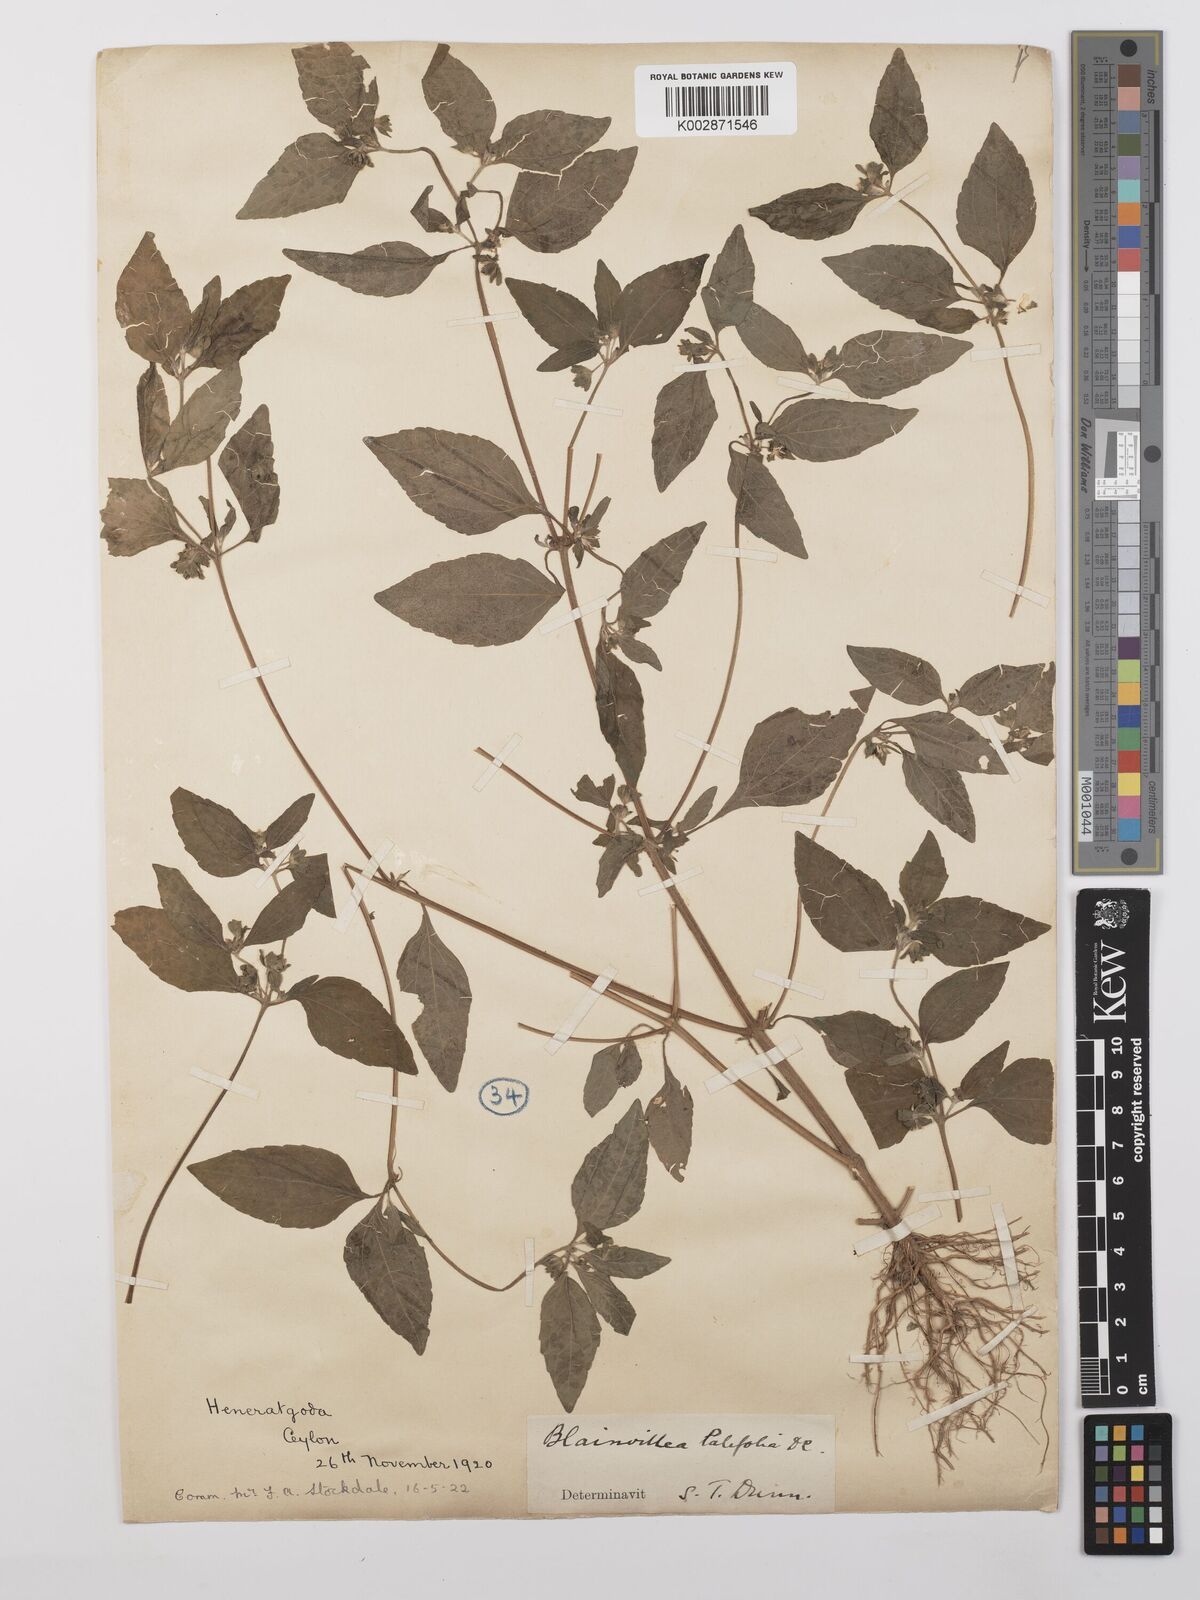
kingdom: Plantae
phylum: Tracheophyta
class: Magnoliopsida
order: Asterales
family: Asteraceae
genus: Eleutheranthera
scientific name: Eleutheranthera ruderalis
